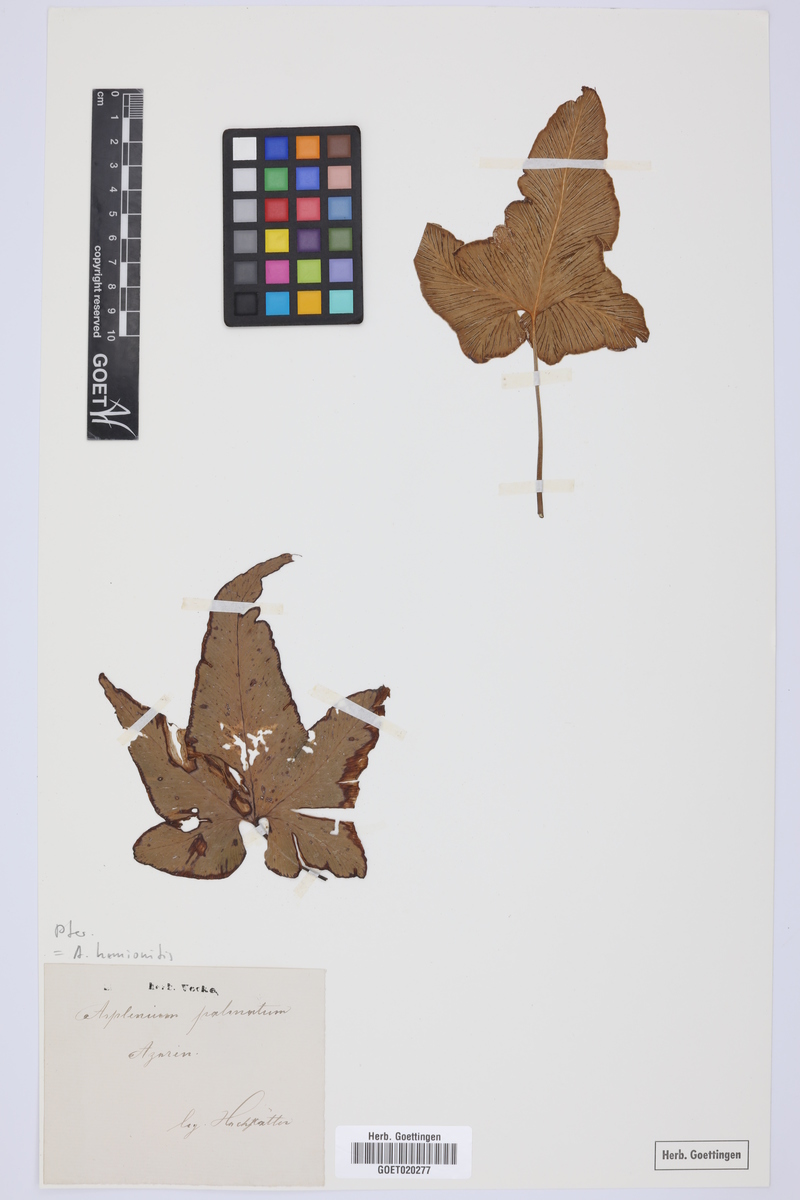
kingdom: Plantae
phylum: Tracheophyta
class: Polypodiopsida
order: Polypodiales
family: Aspleniaceae
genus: Asplenium
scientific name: Asplenium hemionitis
